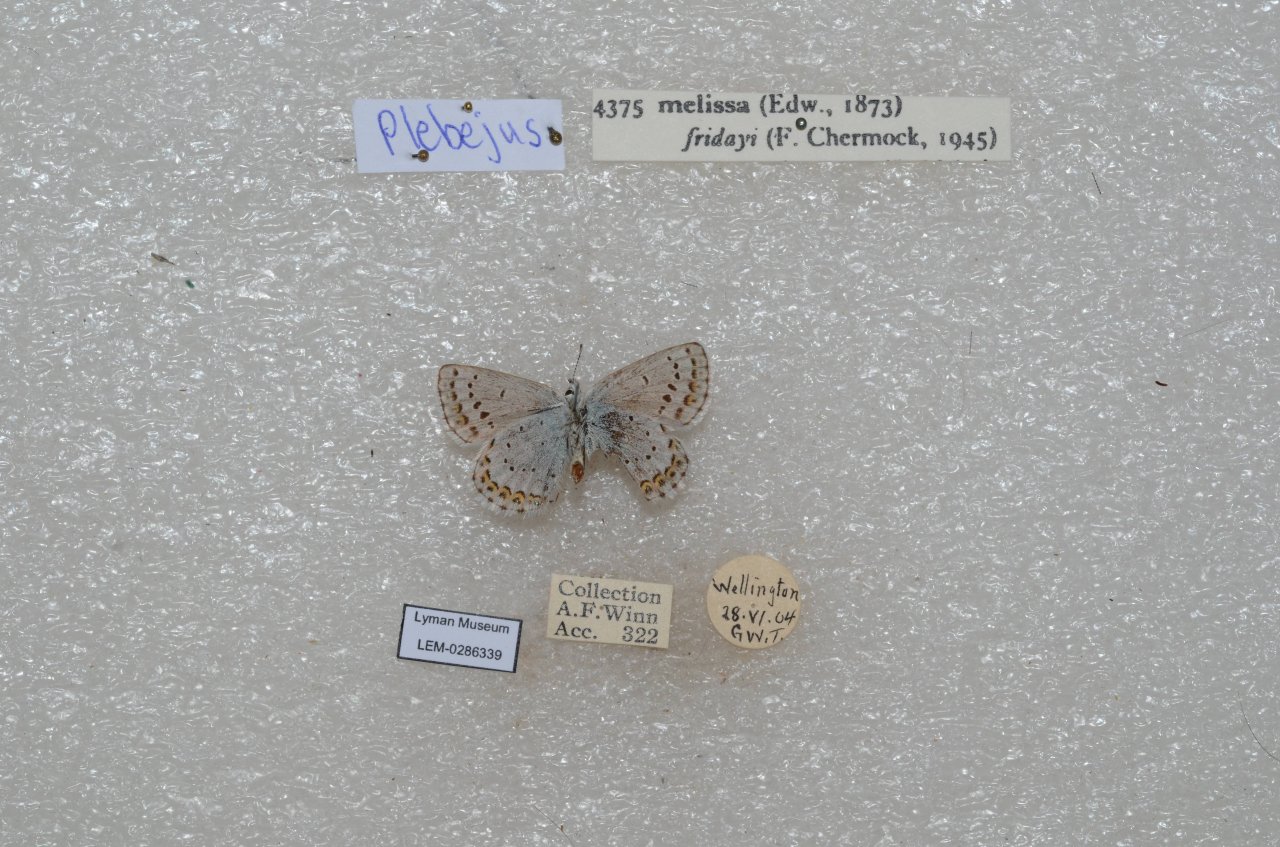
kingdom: Animalia
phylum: Arthropoda
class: Insecta
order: Lepidoptera
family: Lycaenidae
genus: Lycaeides
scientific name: Lycaeides melissa
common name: Melissa Blue
